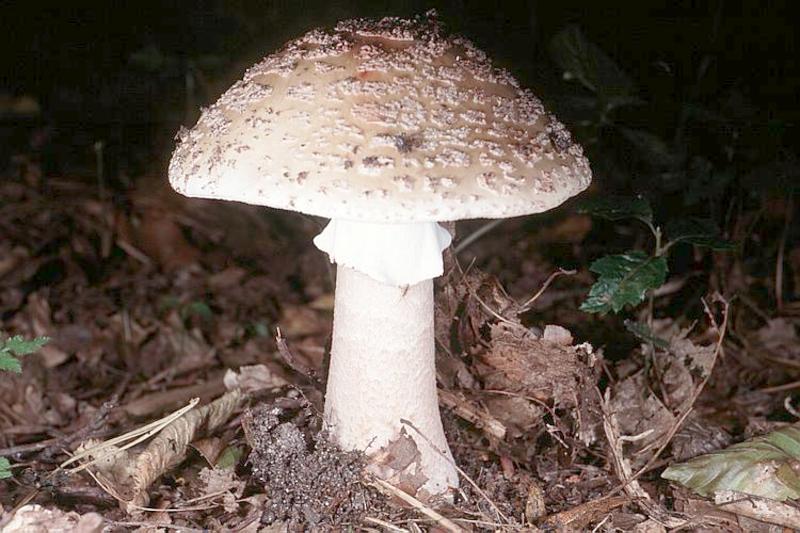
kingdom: Fungi
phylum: Basidiomycota
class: Agaricomycetes
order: Agaricales
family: Amanitaceae
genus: Amanita
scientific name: Amanita rubescens
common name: Blusher
